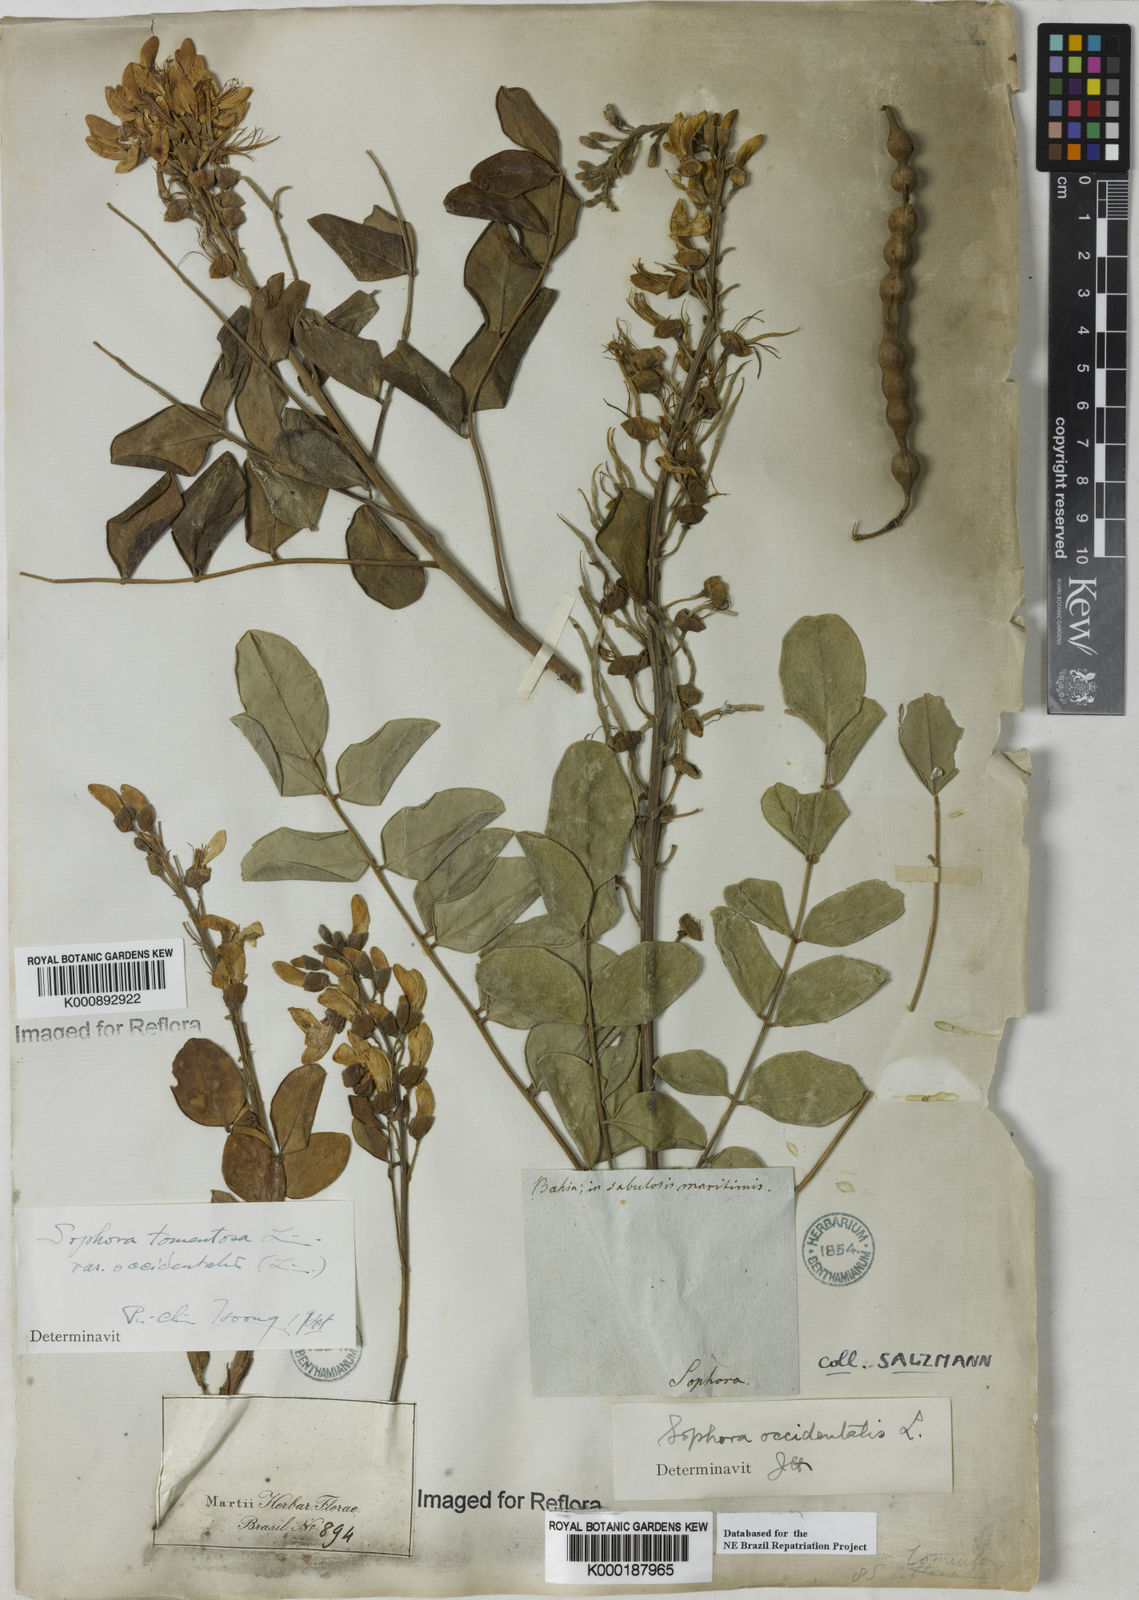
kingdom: Plantae
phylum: Tracheophyta
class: Magnoliopsida
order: Fabales
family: Fabaceae
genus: Sophora
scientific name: Sophora tomentosa
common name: Yellow necklacepod
